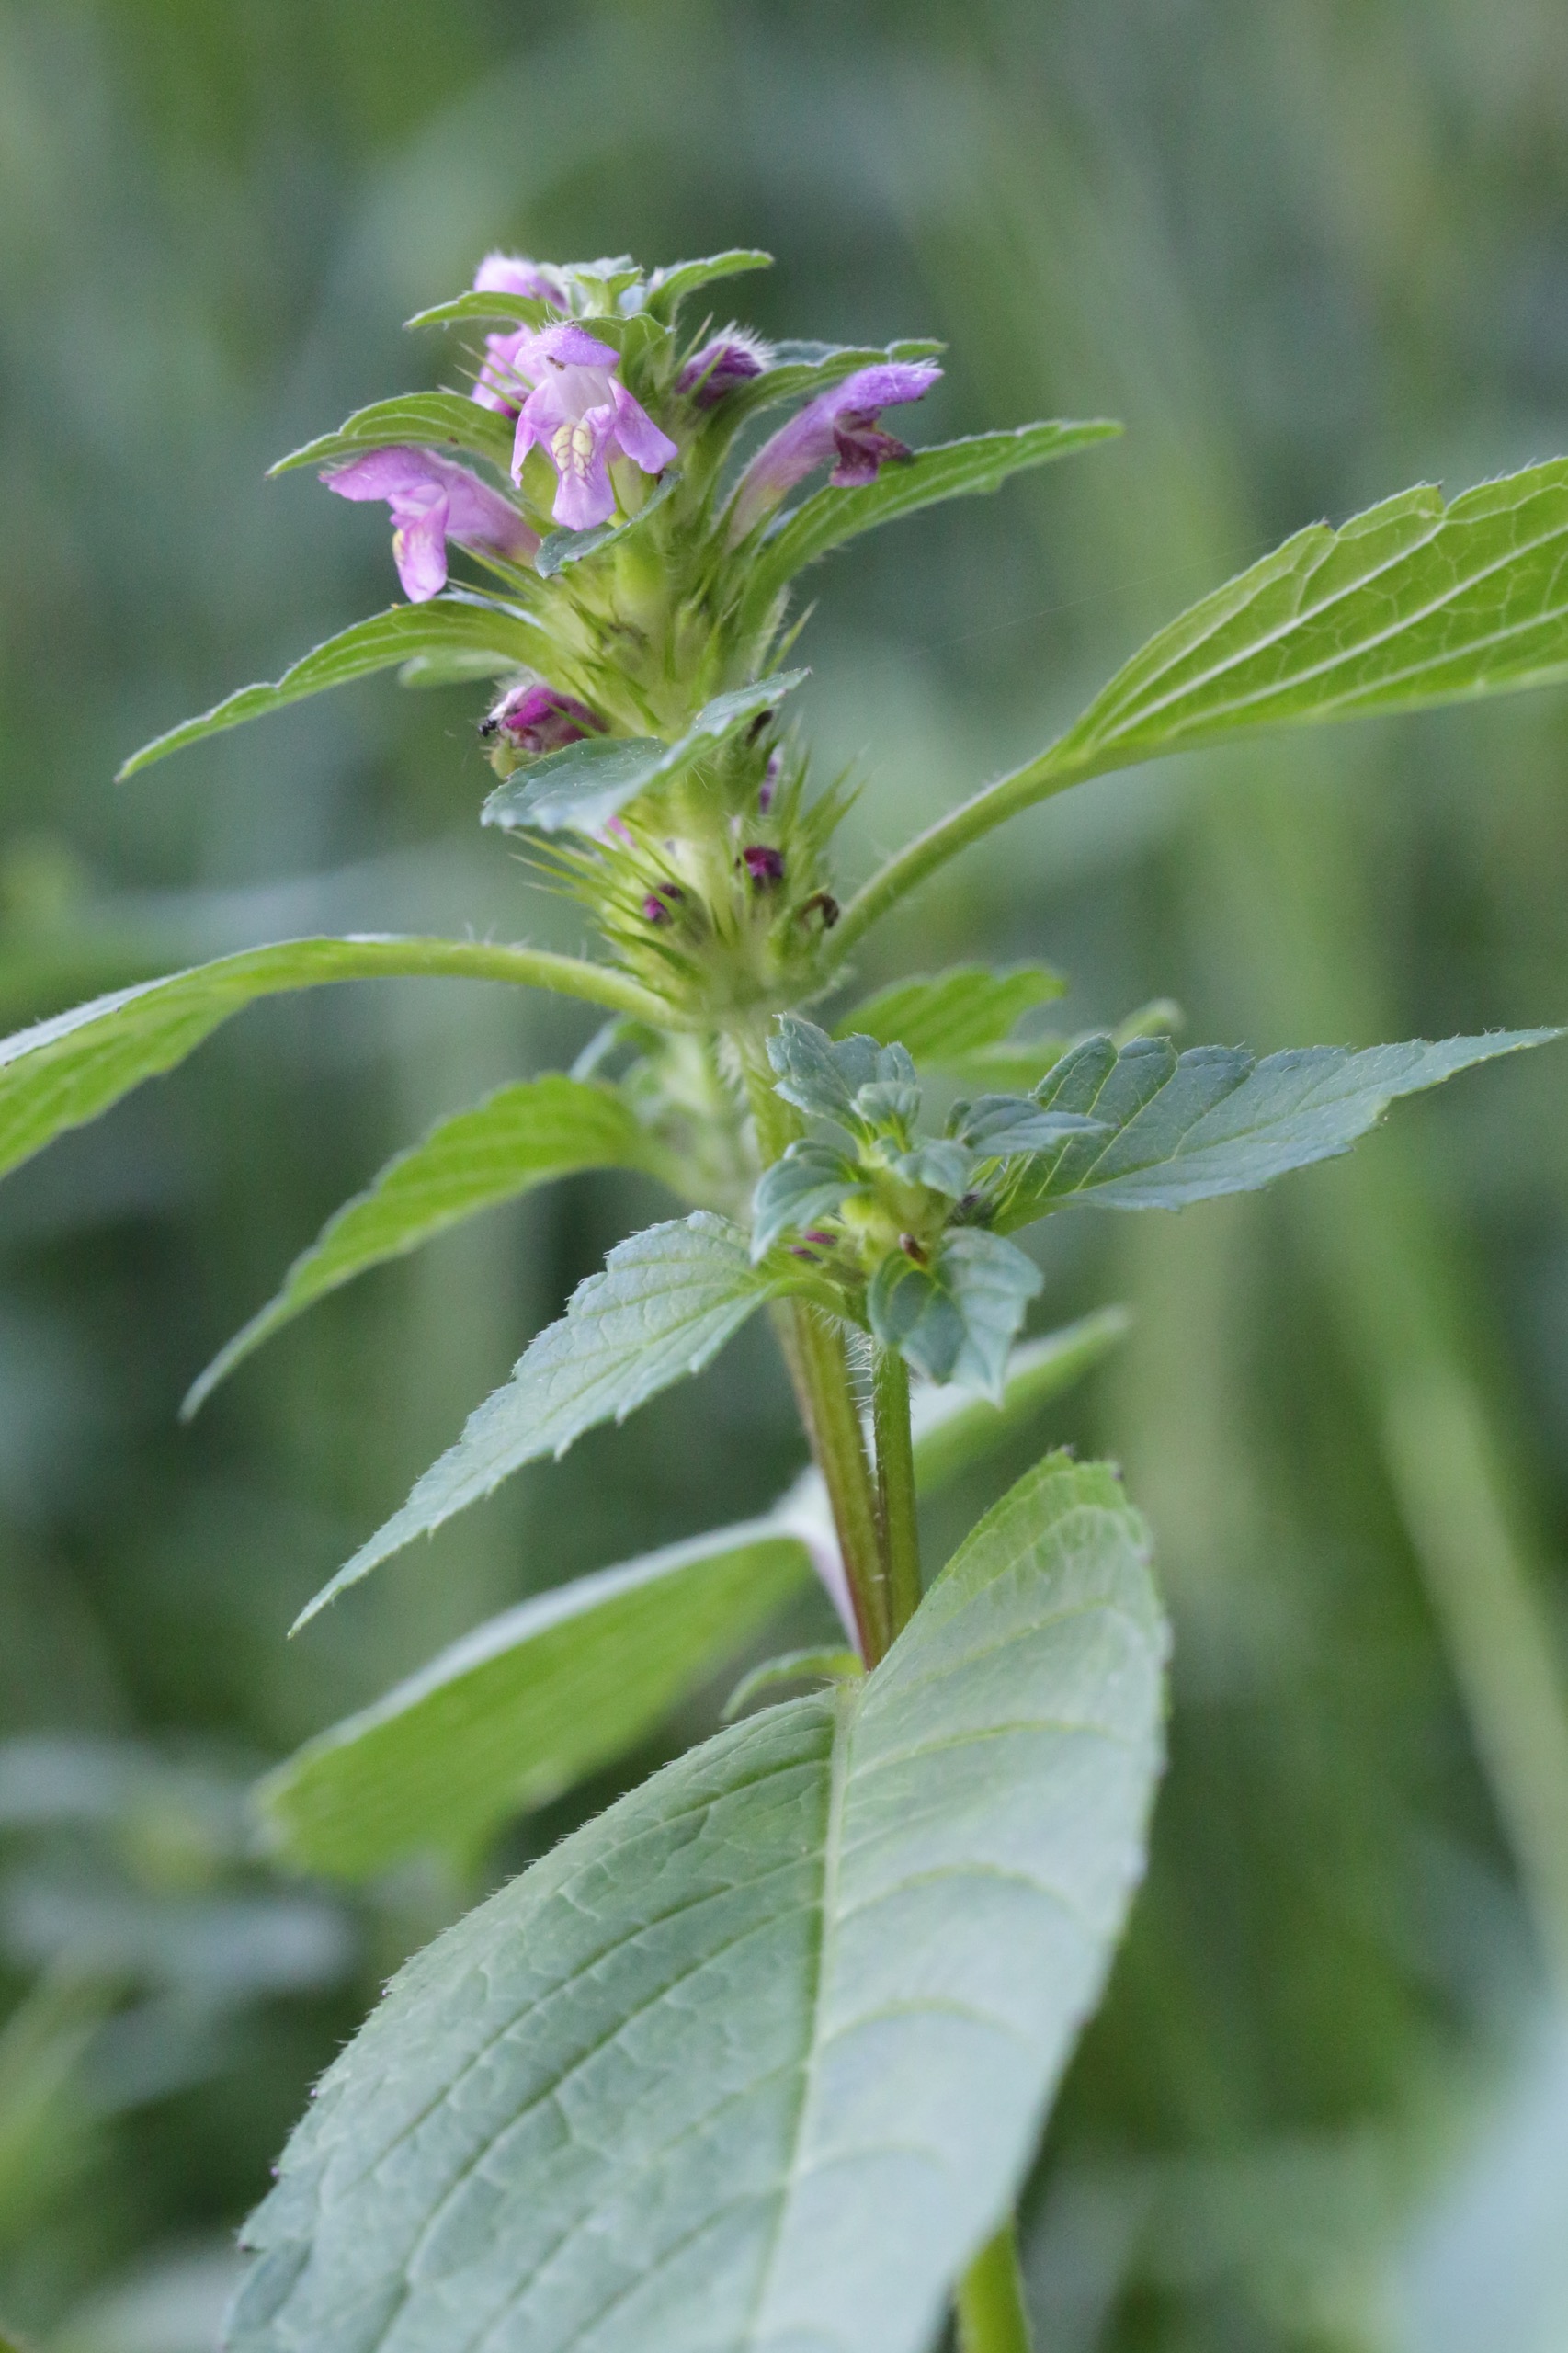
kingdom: Plantae
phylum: Tracheophyta
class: Magnoliopsida
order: Lamiales
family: Lamiaceae
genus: Galeopsis
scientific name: Galeopsis tetrahit
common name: Almindelig hanekro
